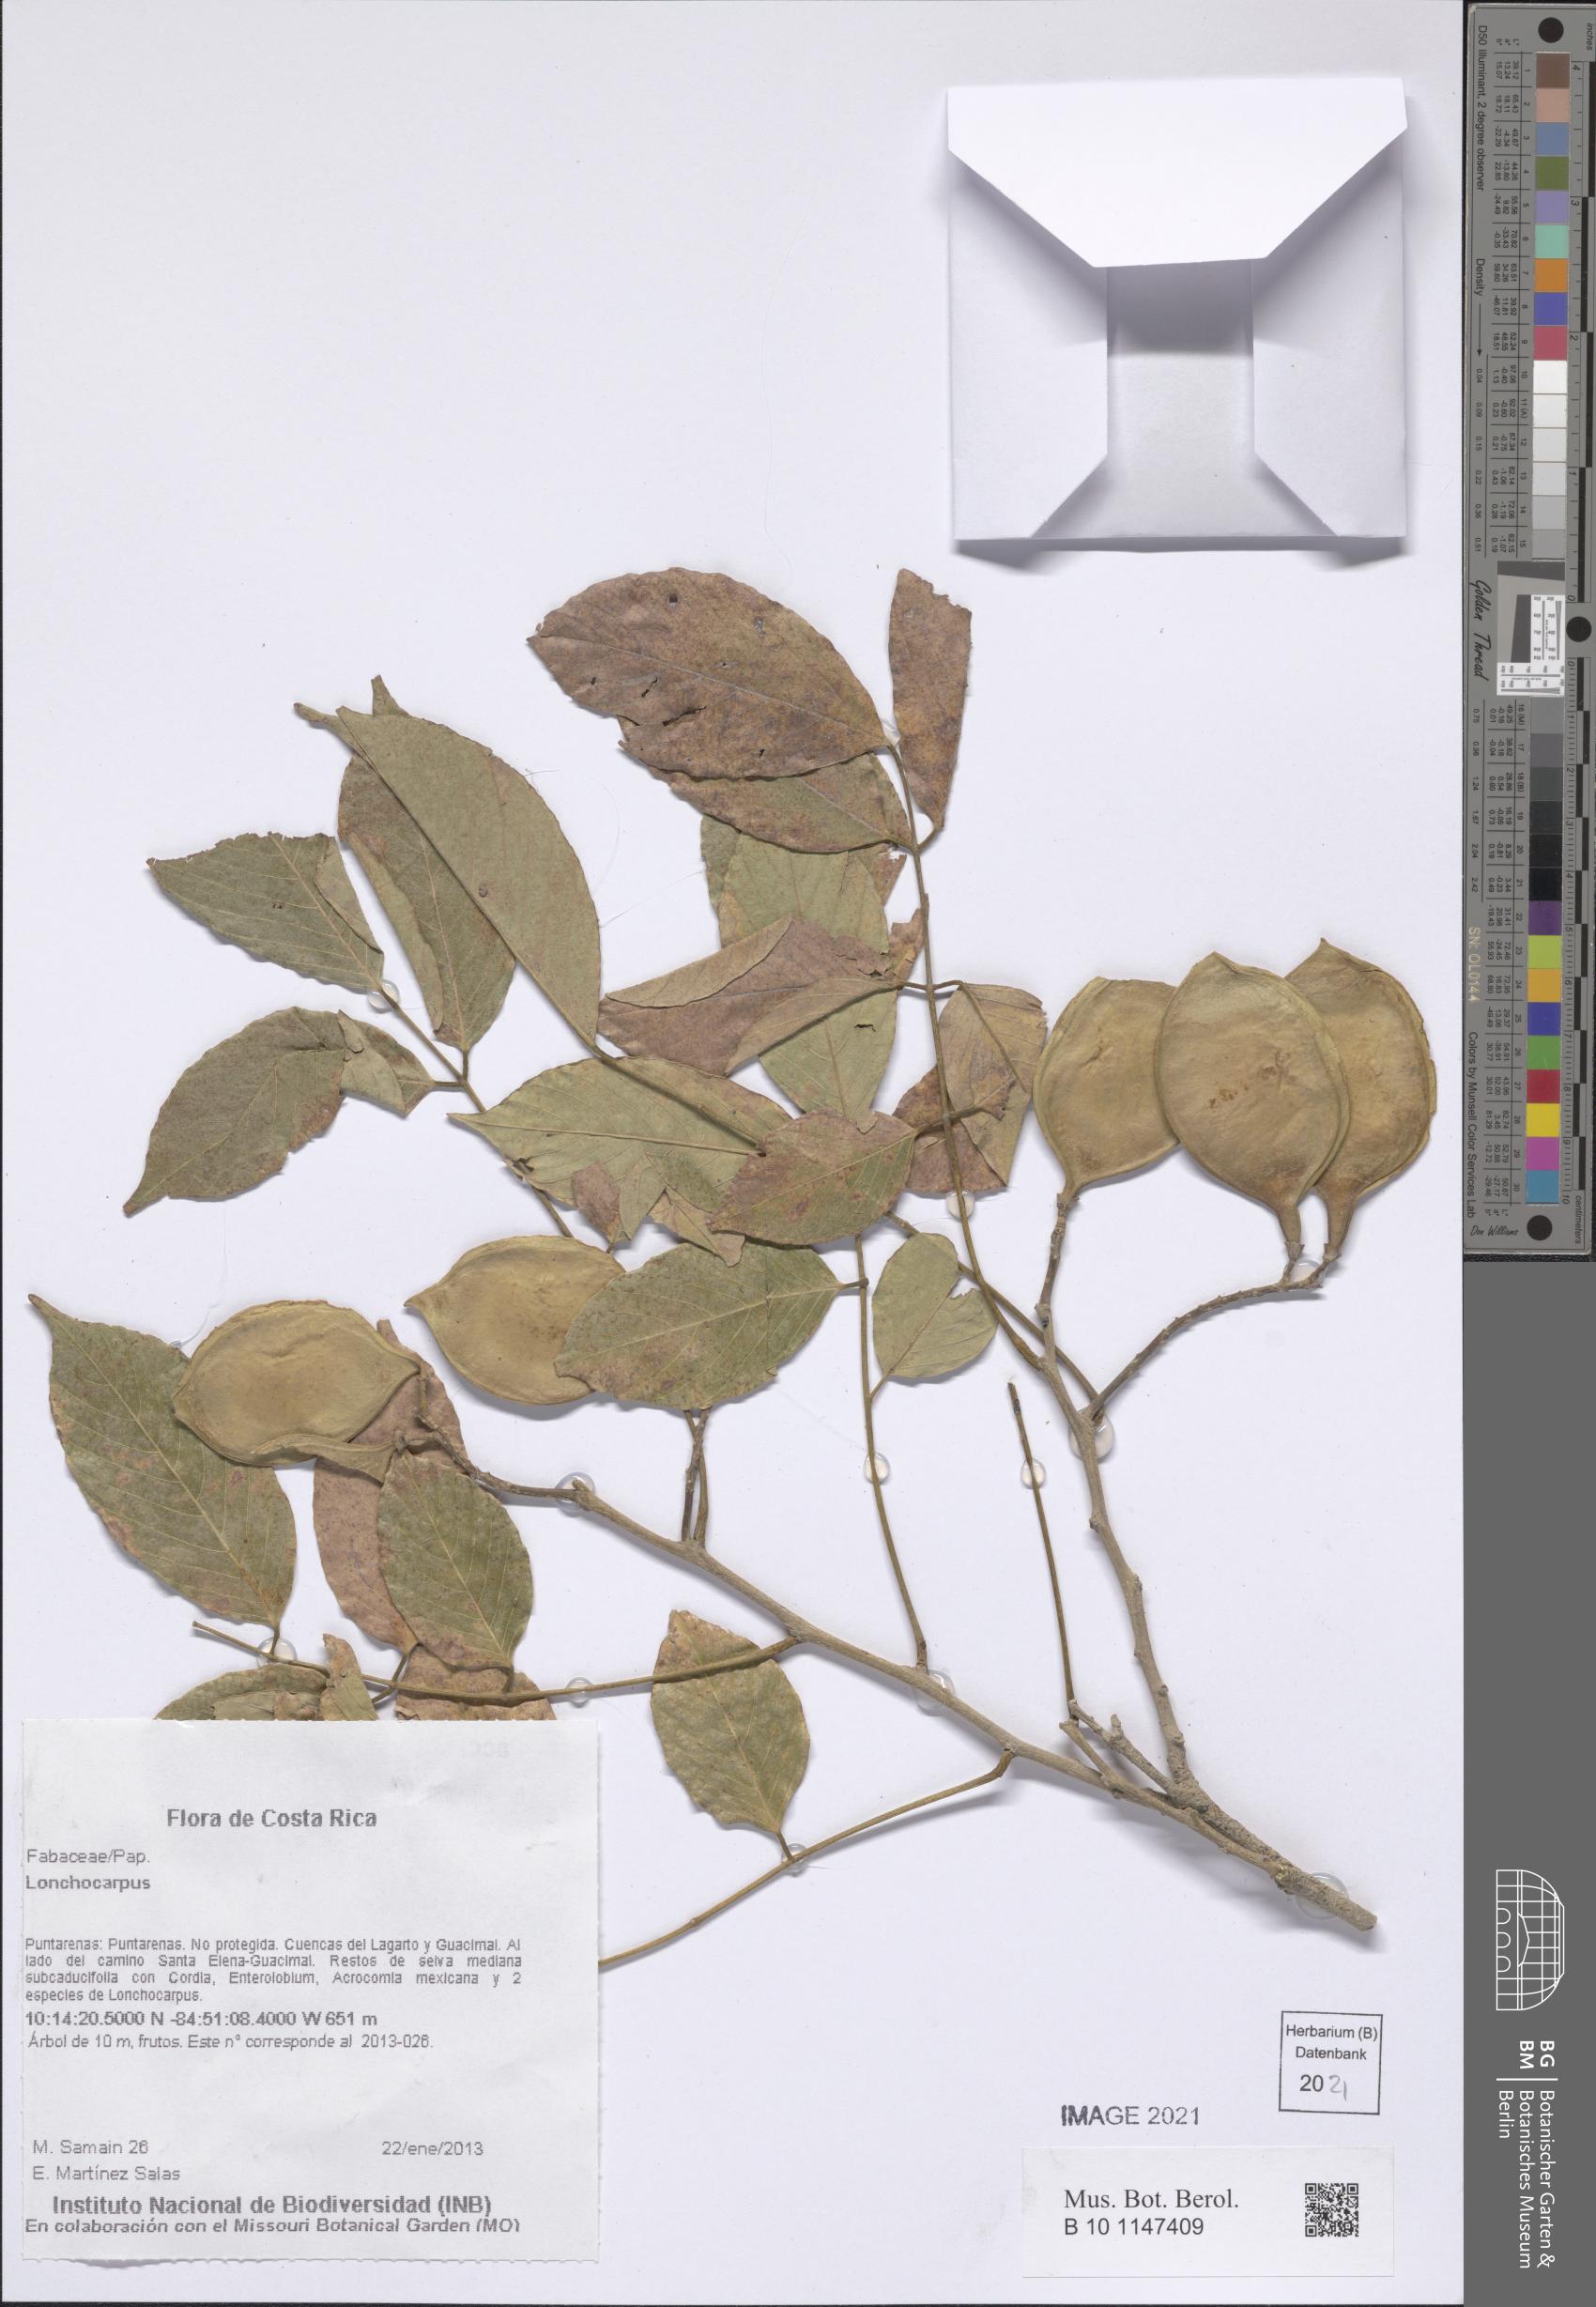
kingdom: Plantae
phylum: Tracheophyta
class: Magnoliopsida
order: Fabales
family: Fabaceae
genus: Lonchocarpus
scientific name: Lonchocarpus
